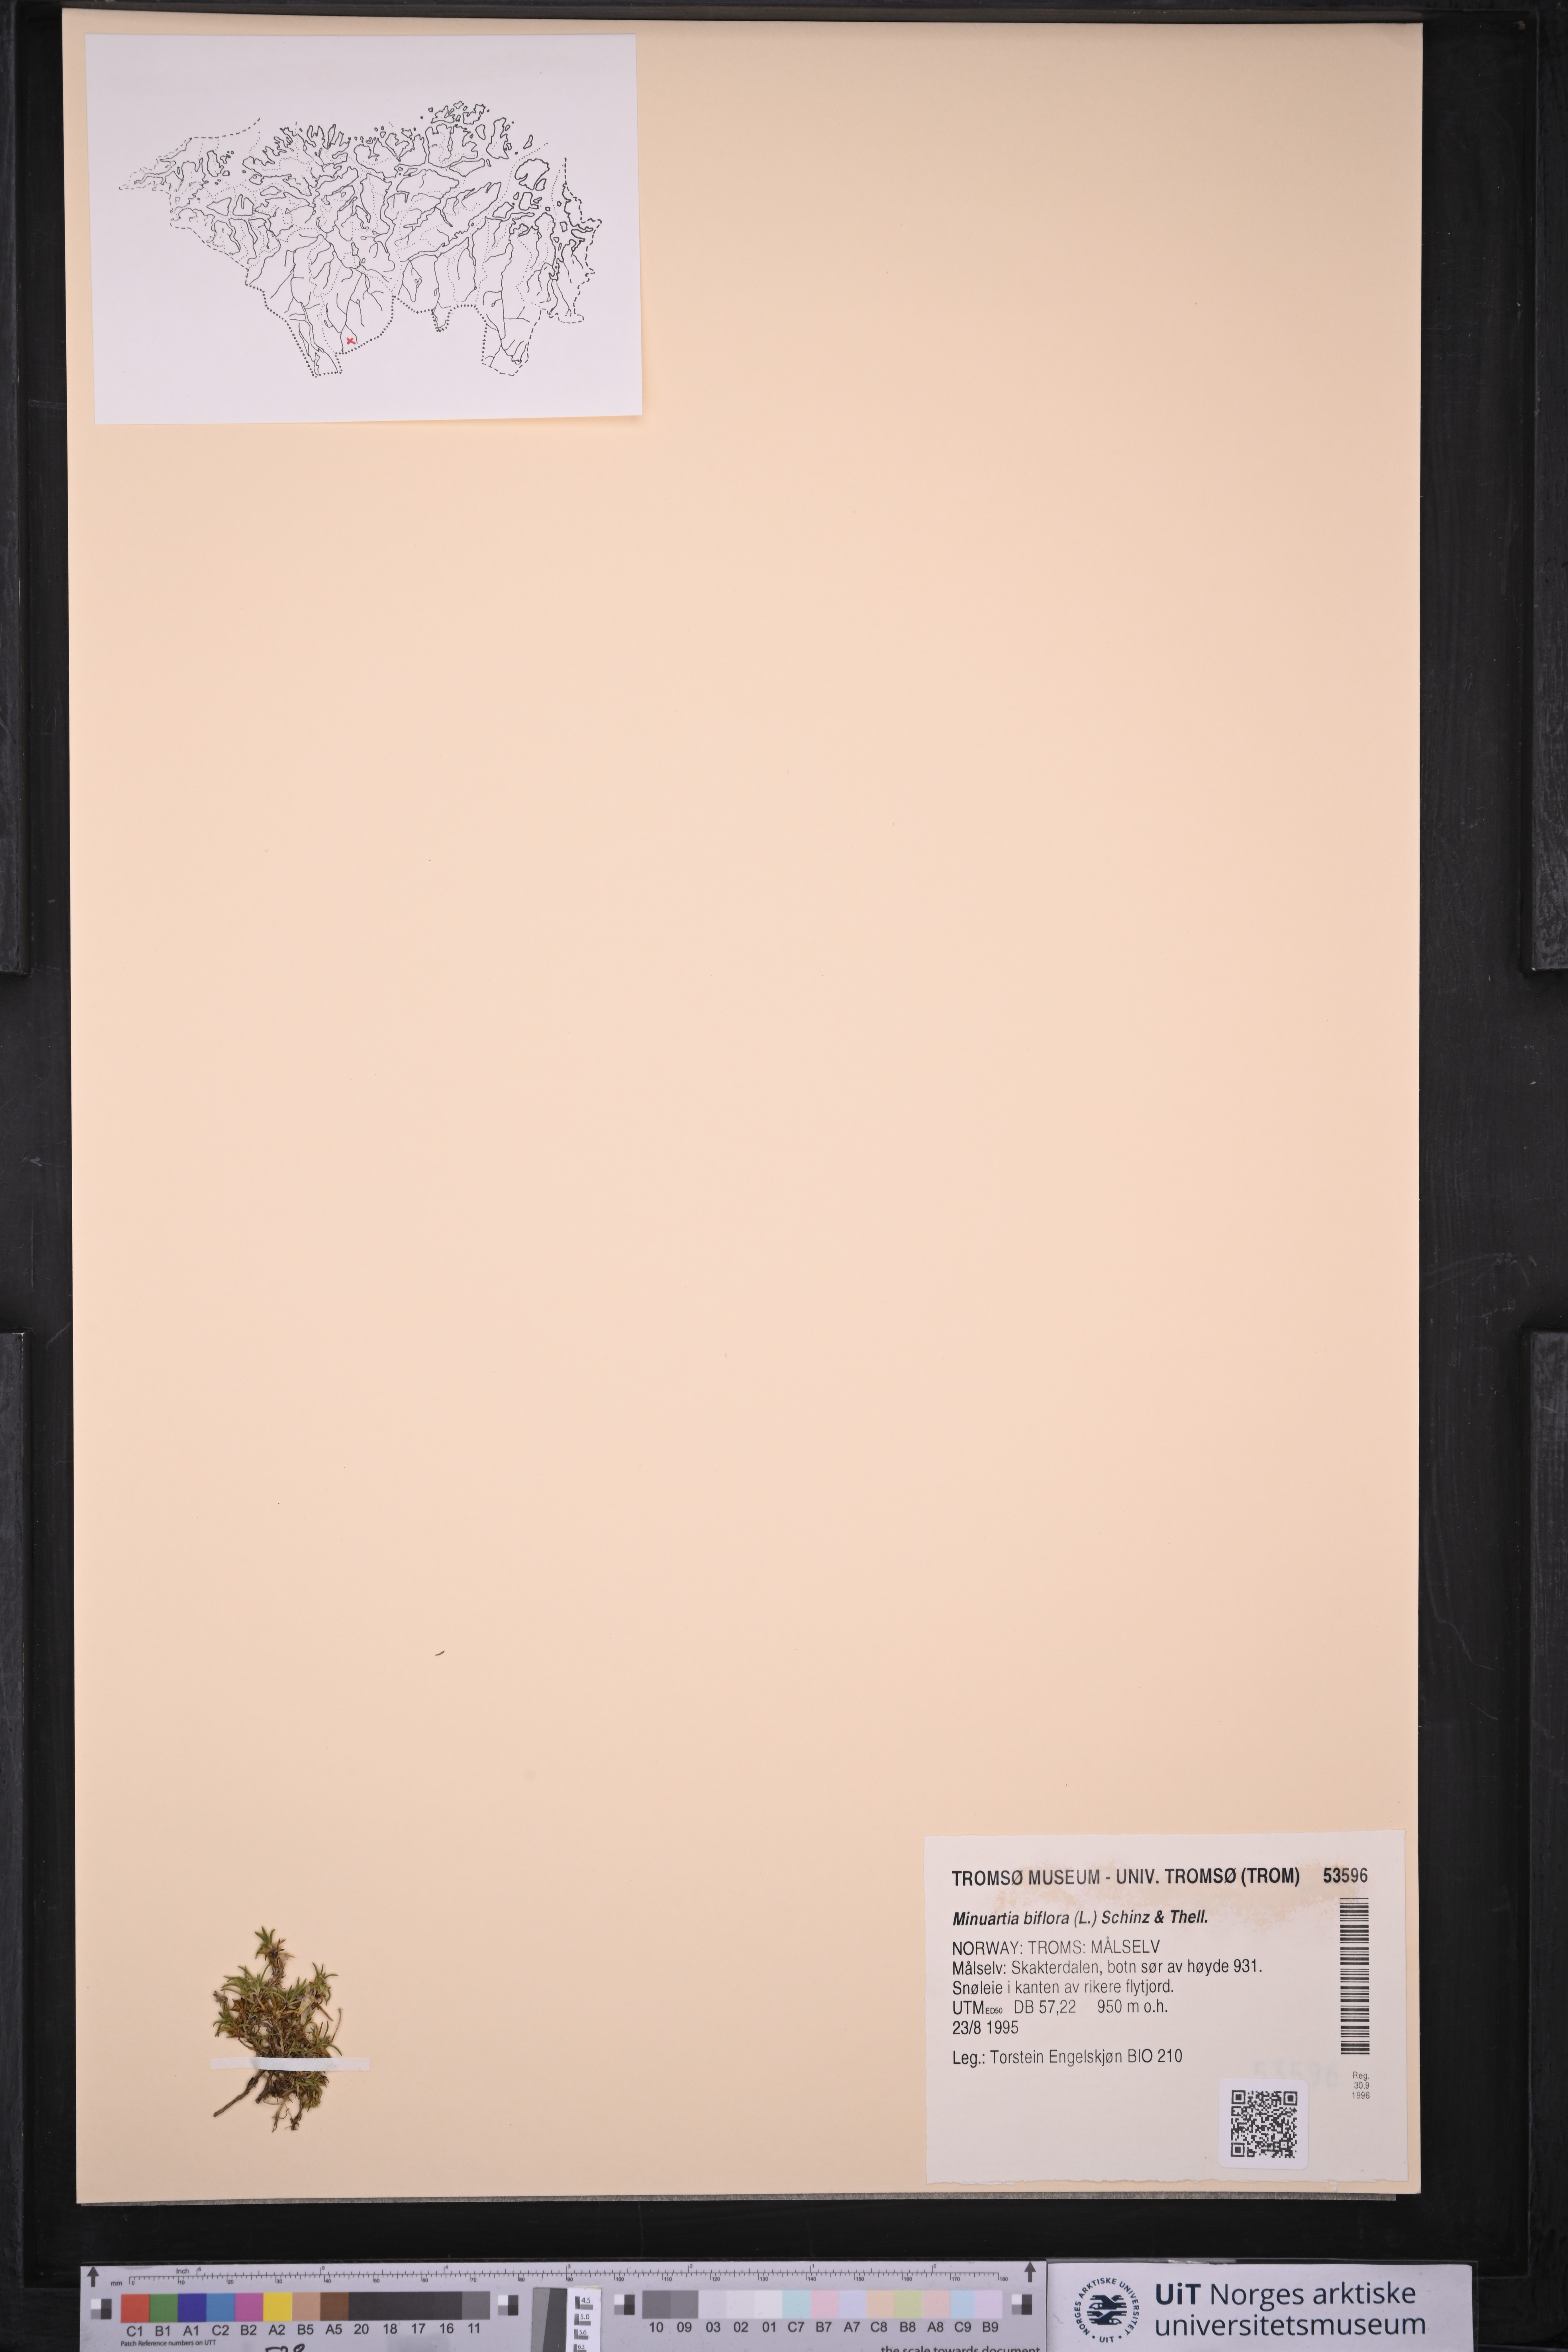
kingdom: Plantae
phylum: Tracheophyta
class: Magnoliopsida
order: Caryophyllales
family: Caryophyllaceae
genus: Cherleria
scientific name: Cherleria biflora
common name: Mountain sandwort
